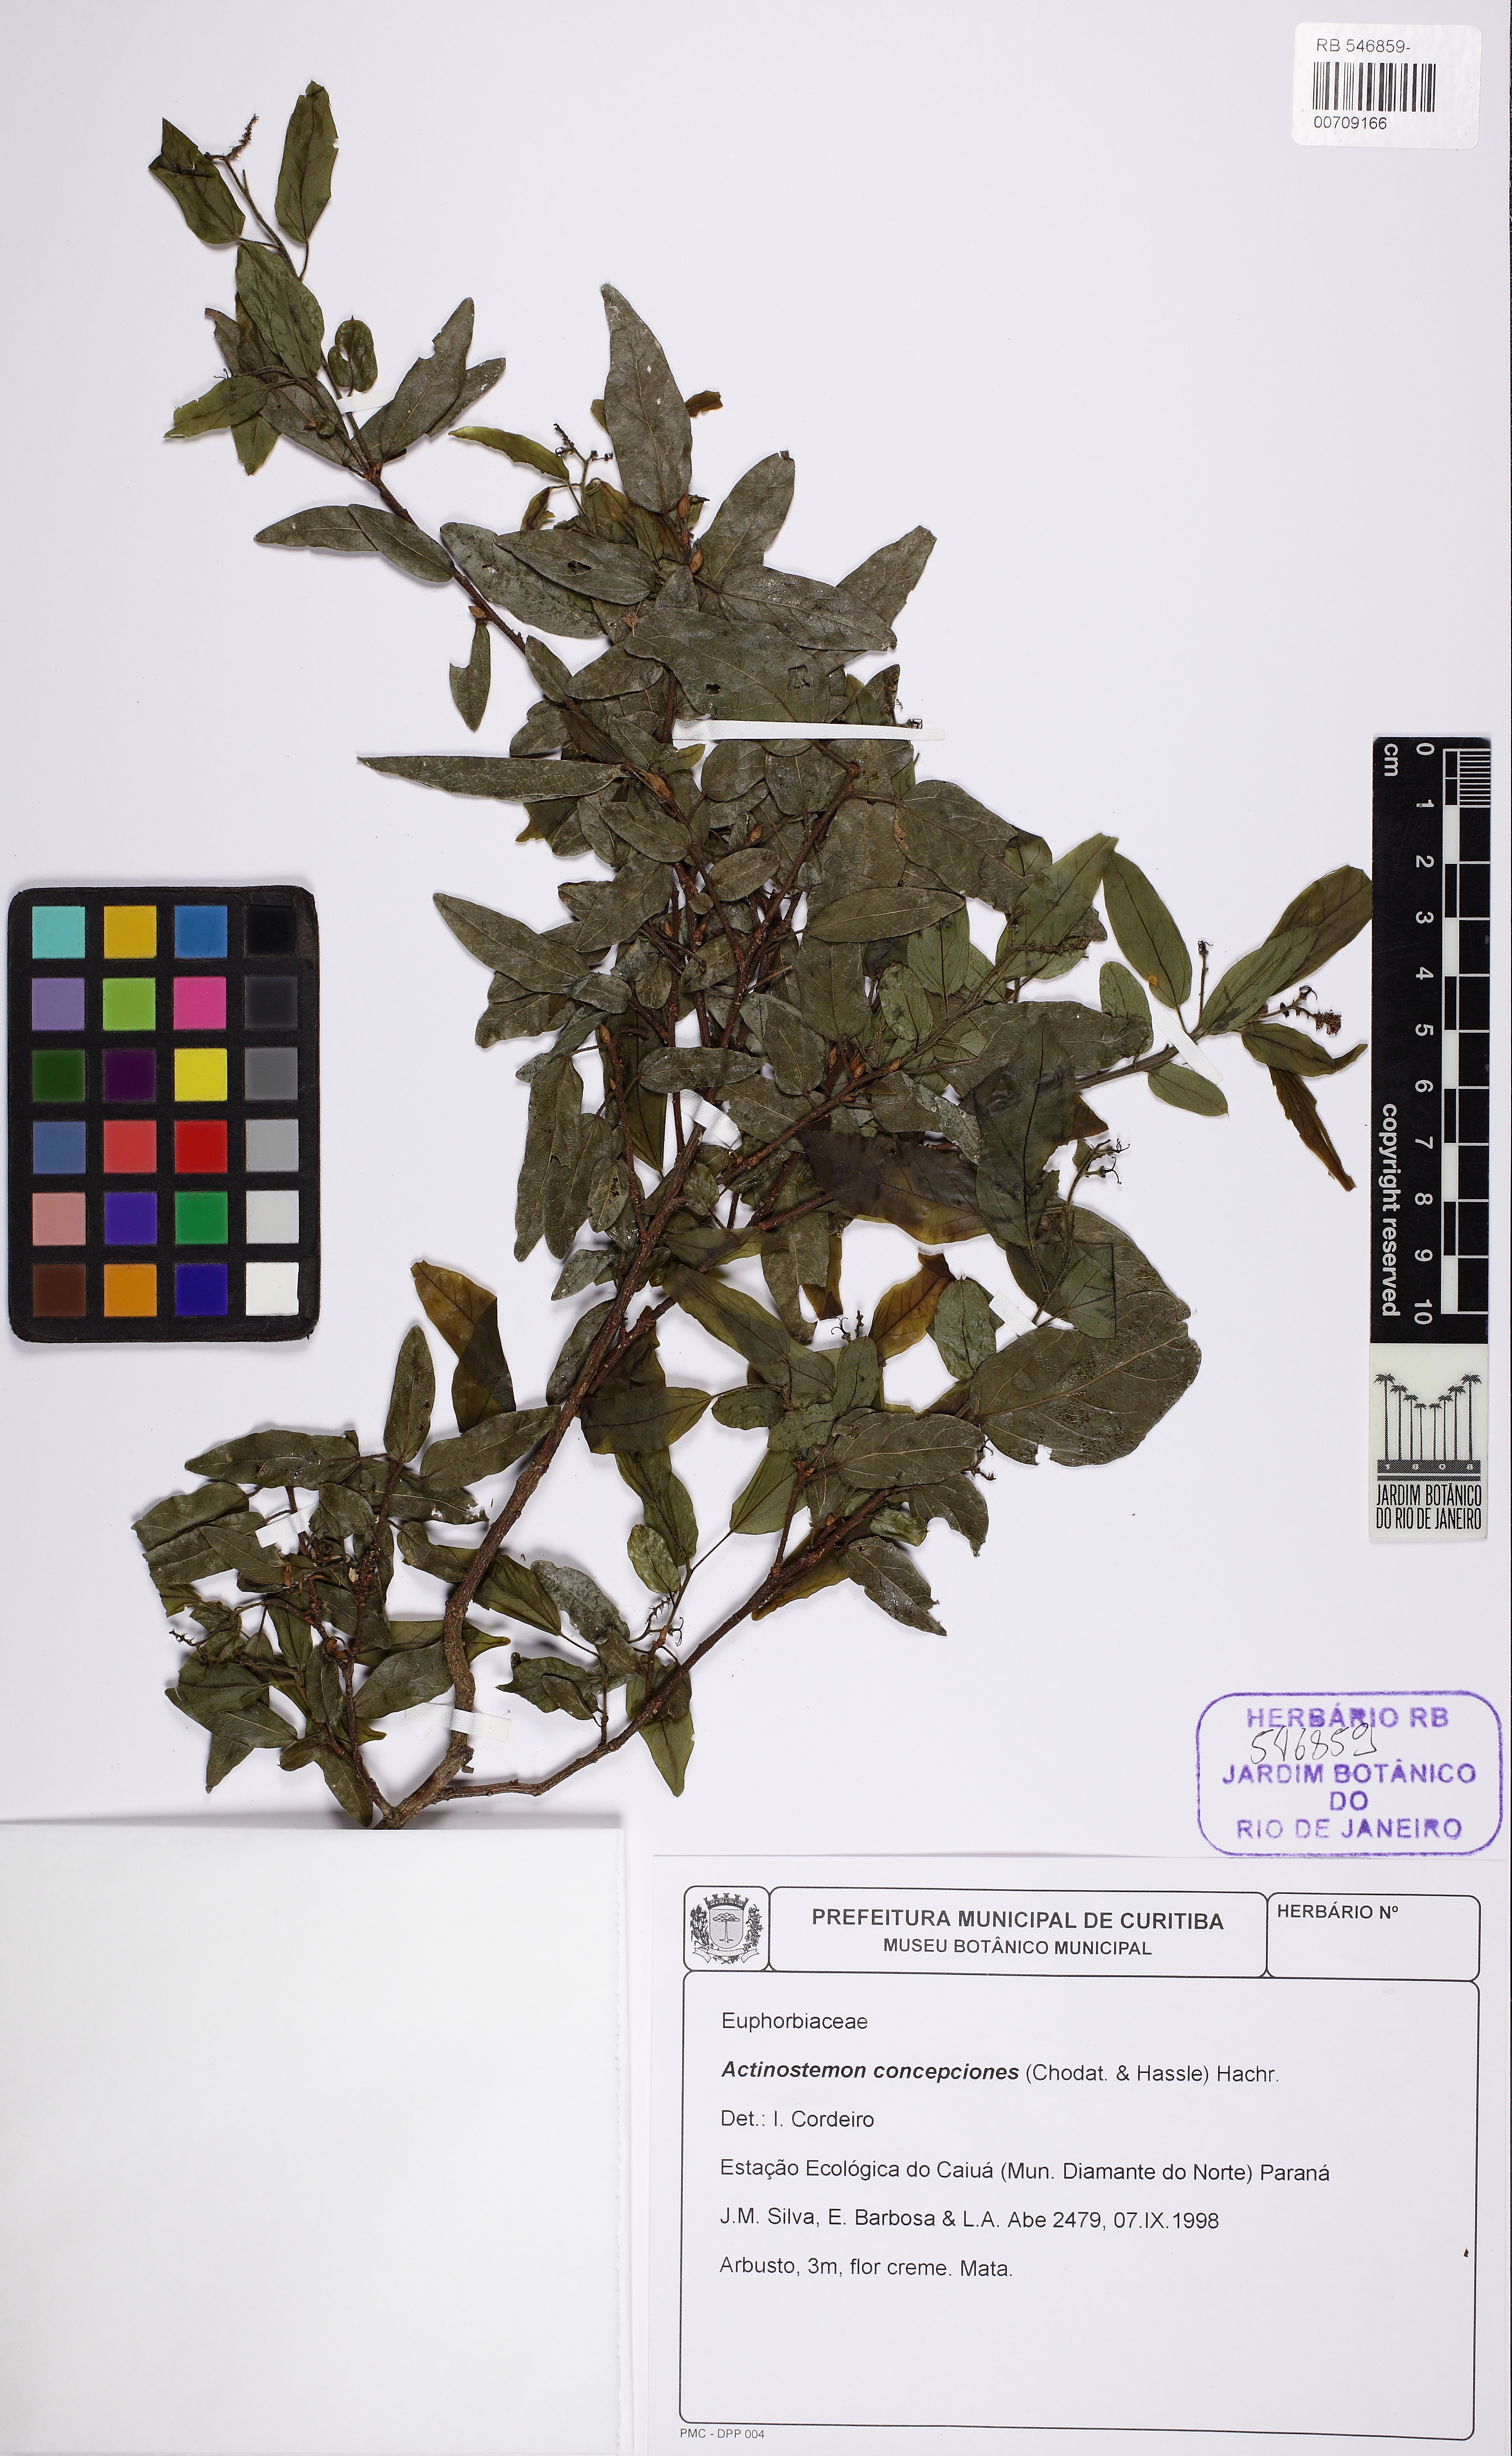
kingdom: Plantae
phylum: Tracheophyta
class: Magnoliopsida
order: Malpighiales
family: Euphorbiaceae
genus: Actinostemon
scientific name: Actinostemon concepcionis
